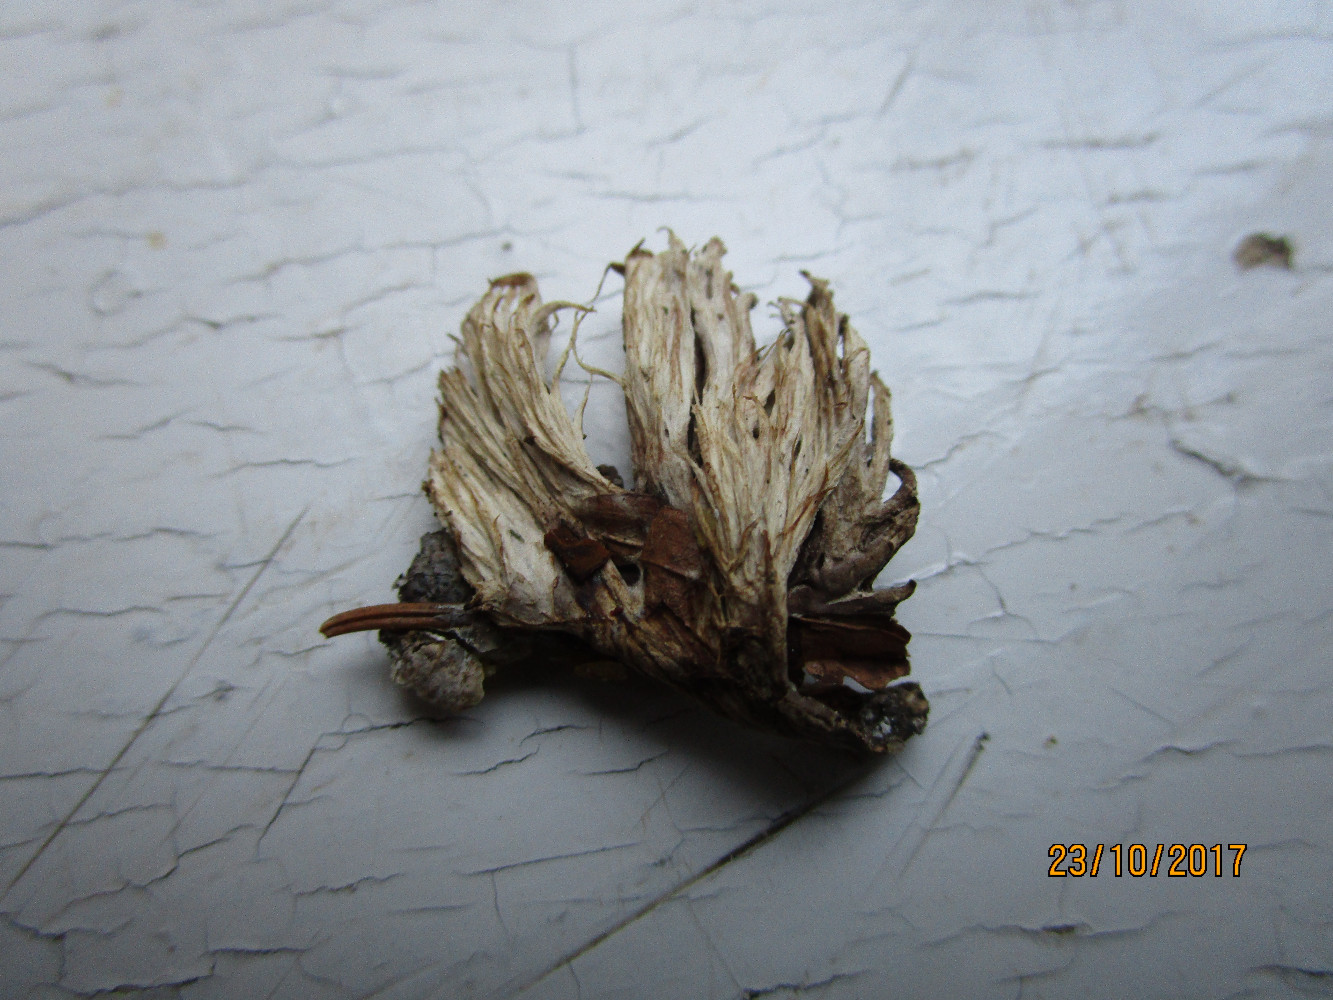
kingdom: Fungi
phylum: Basidiomycota
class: Agaricomycetes
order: Thelephorales
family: Thelephoraceae
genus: Thelephora
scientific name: Thelephora penicillata
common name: fladtrådt frynsesvamp
